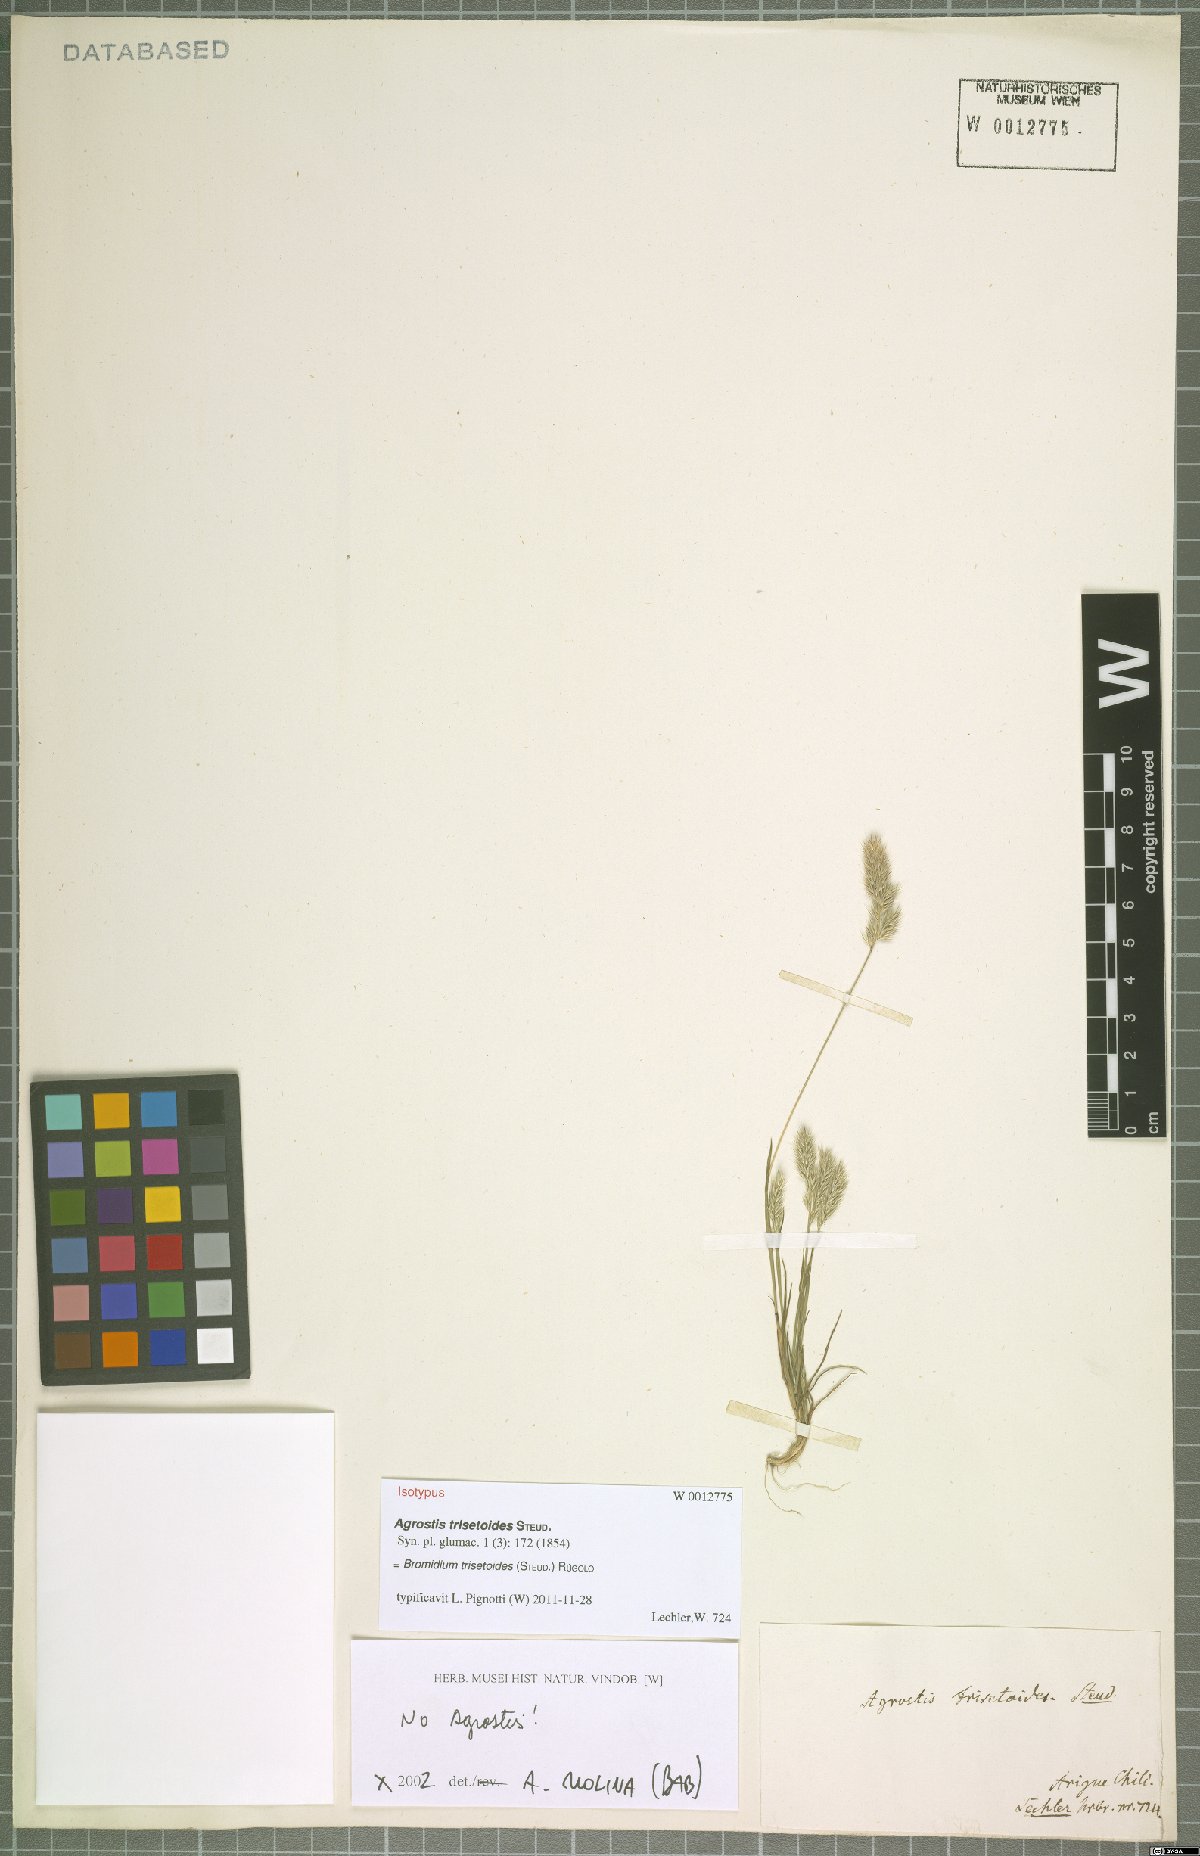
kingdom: Plantae
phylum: Tracheophyta
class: Liliopsida
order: Poales
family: Poaceae
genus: Agrostis
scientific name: Agrostis trisetoides
